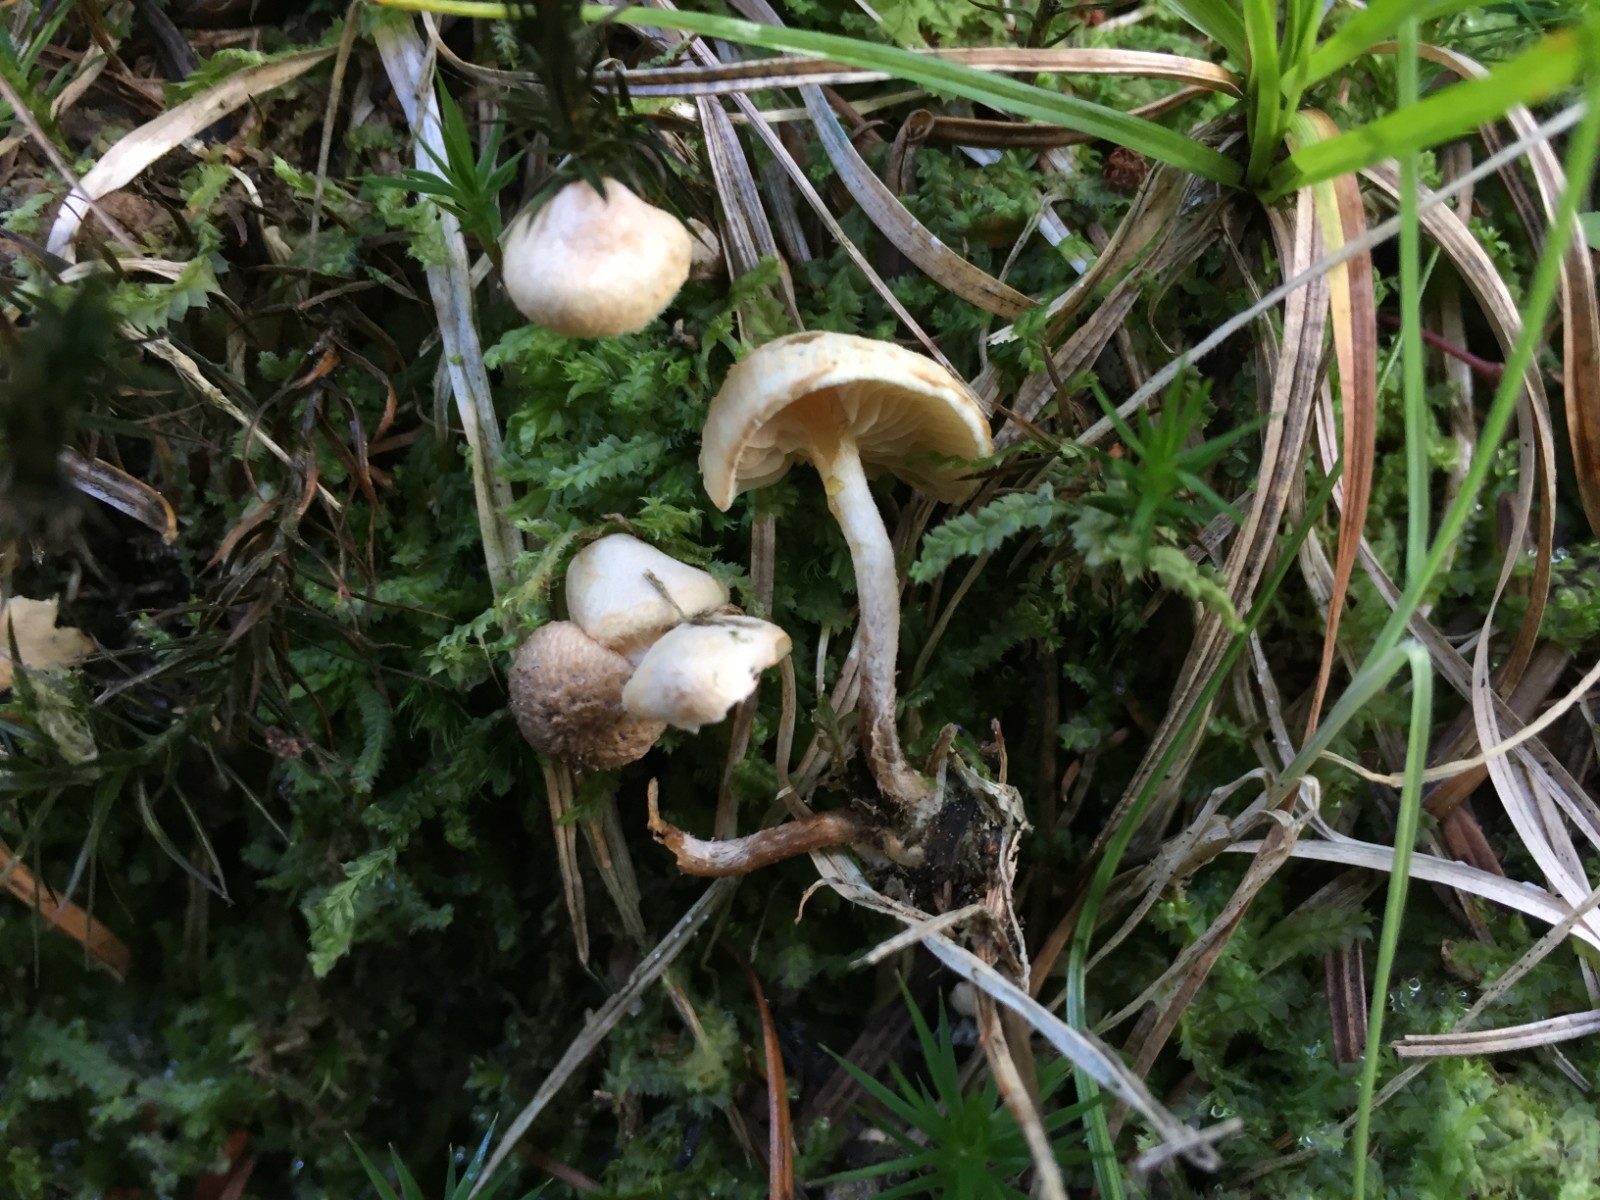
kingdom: Fungi
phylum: Basidiomycota
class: Agaricomycetes
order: Agaricales
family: Strophariaceae
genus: Pholiota
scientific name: Pholiota scamba
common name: dværg-skælhat
